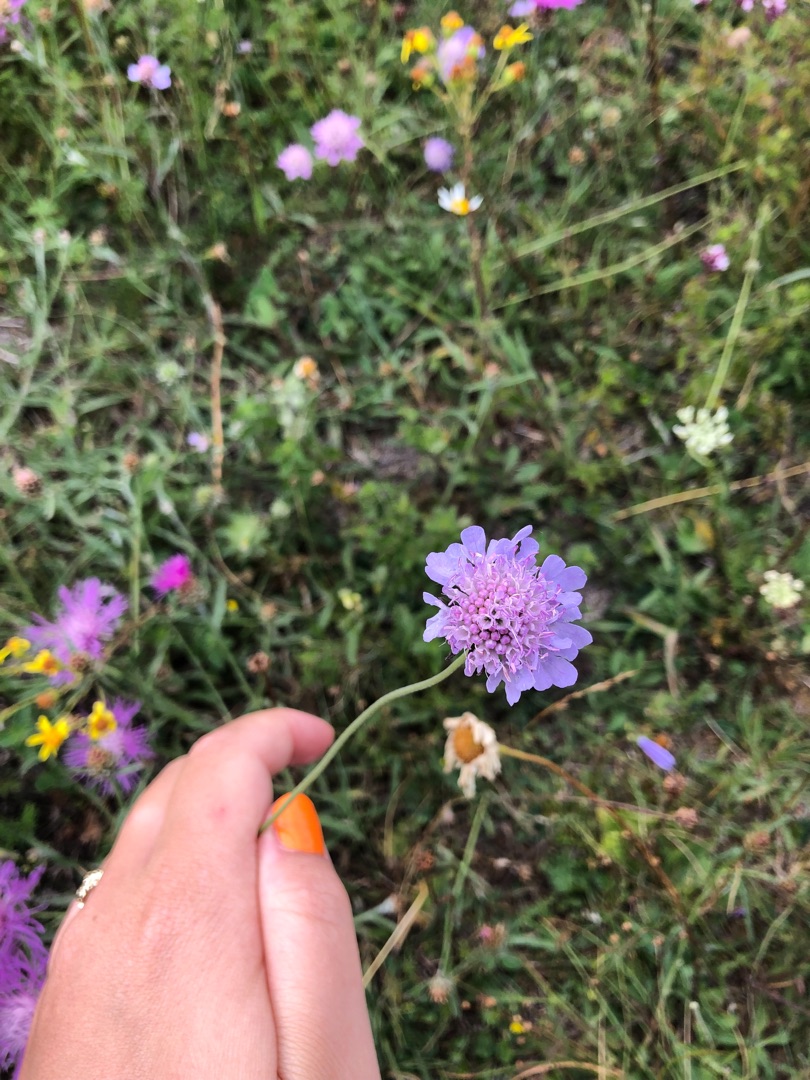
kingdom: Plantae
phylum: Tracheophyta
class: Magnoliopsida
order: Dipsacales
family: Caprifoliaceae
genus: Scabiosa
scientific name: Scabiosa columbaria
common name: Due-skabiose
